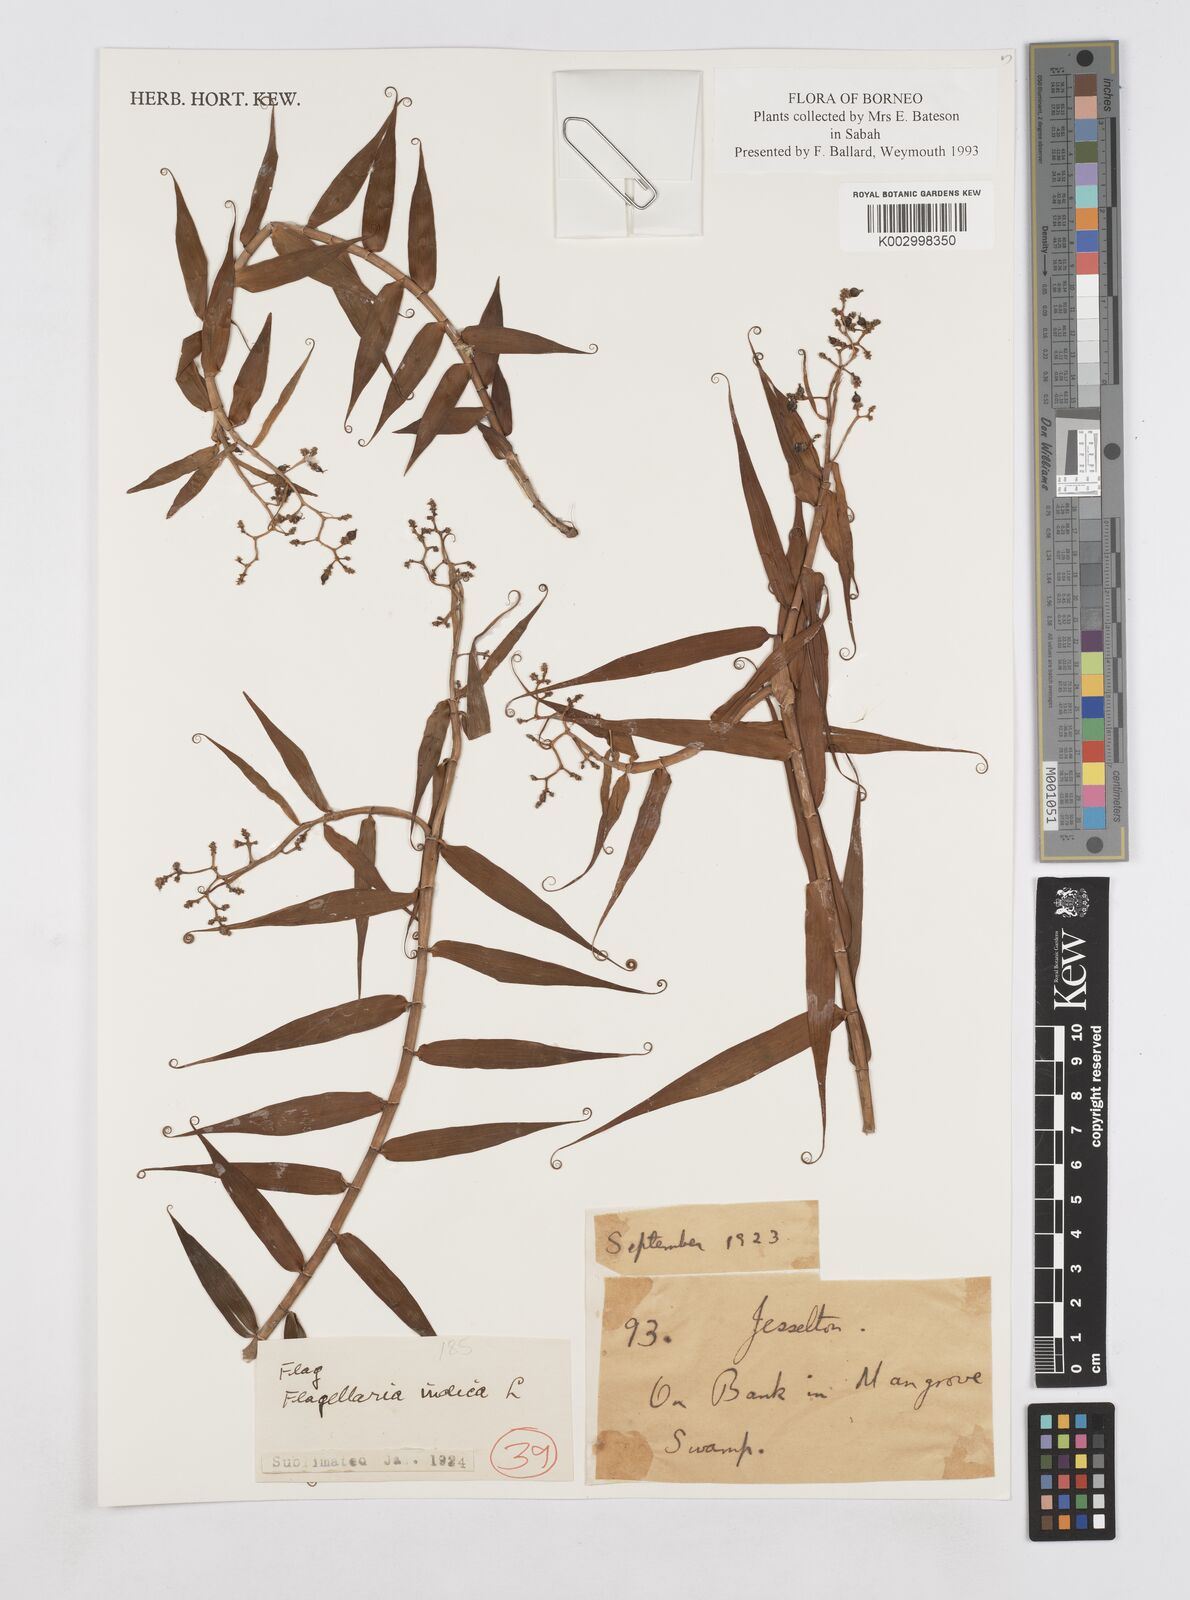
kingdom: Plantae
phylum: Tracheophyta
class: Liliopsida
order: Poales
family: Flagellariaceae
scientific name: Flagellariaceae
